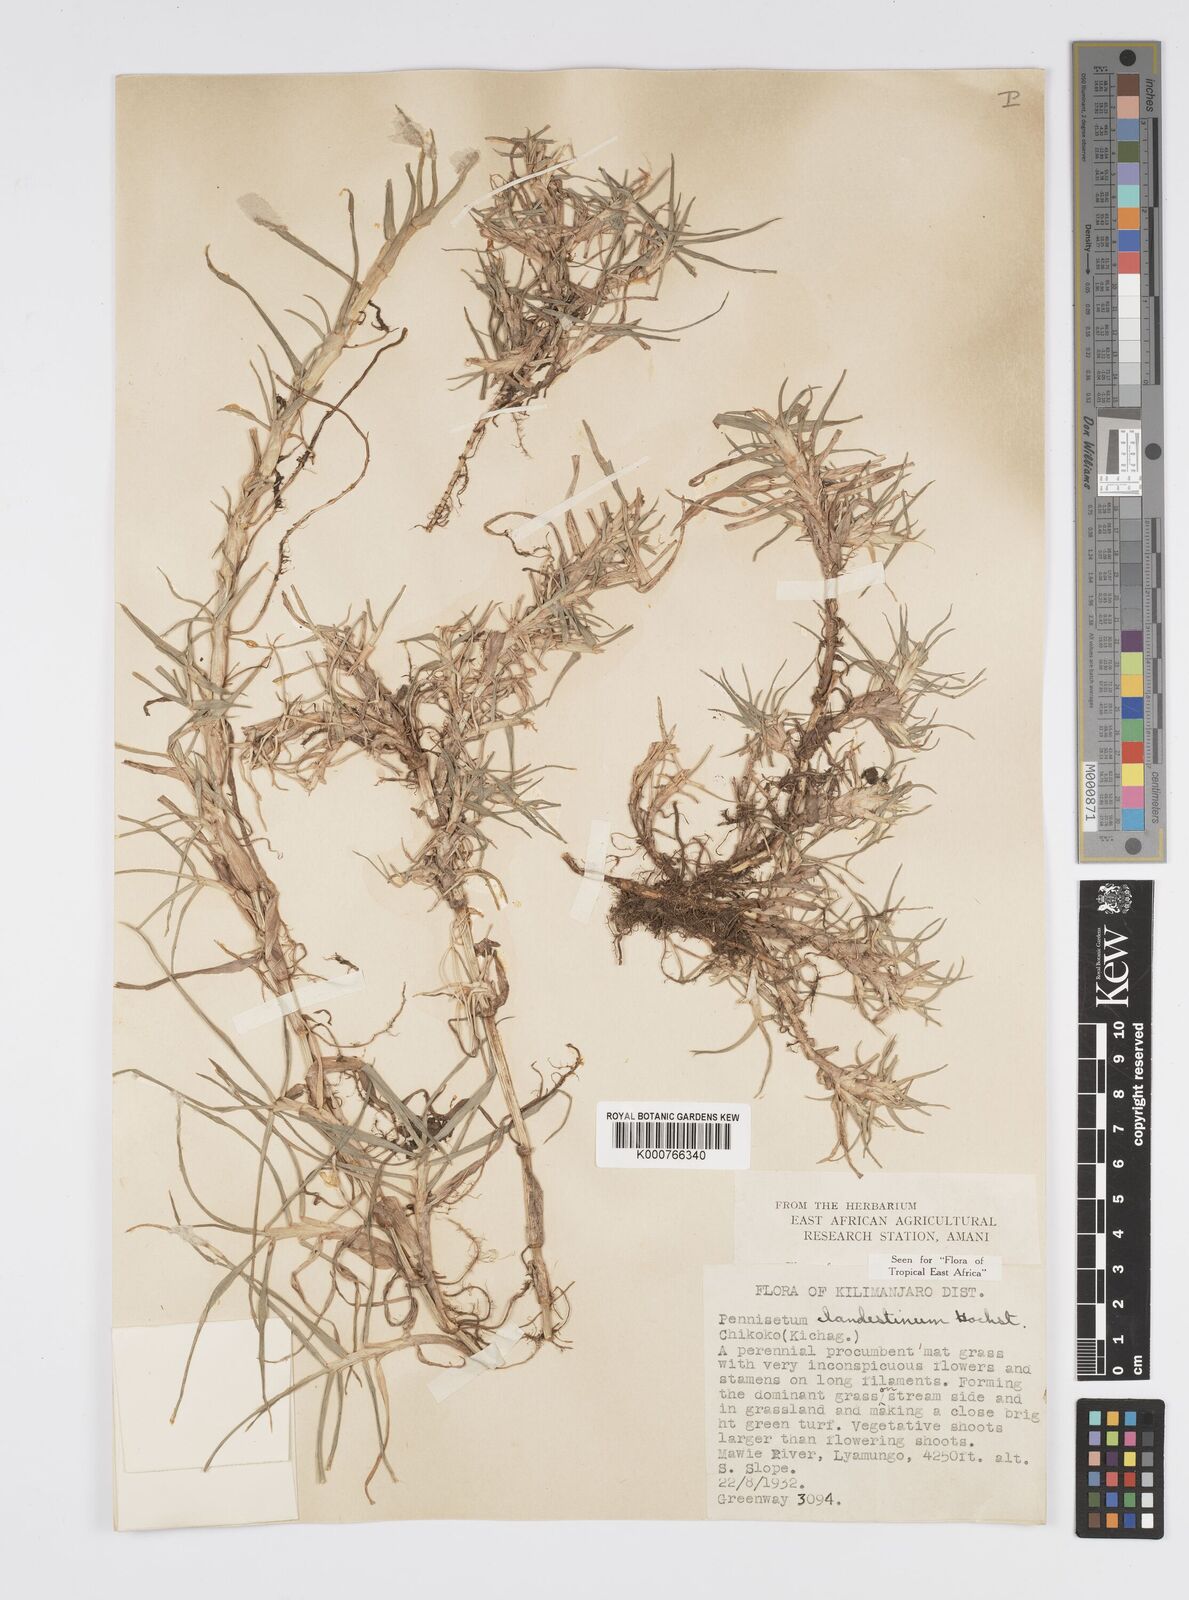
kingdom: Plantae
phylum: Tracheophyta
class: Liliopsida
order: Poales
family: Poaceae
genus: Cenchrus
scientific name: Cenchrus clandestinus
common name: Kikuyugrass
